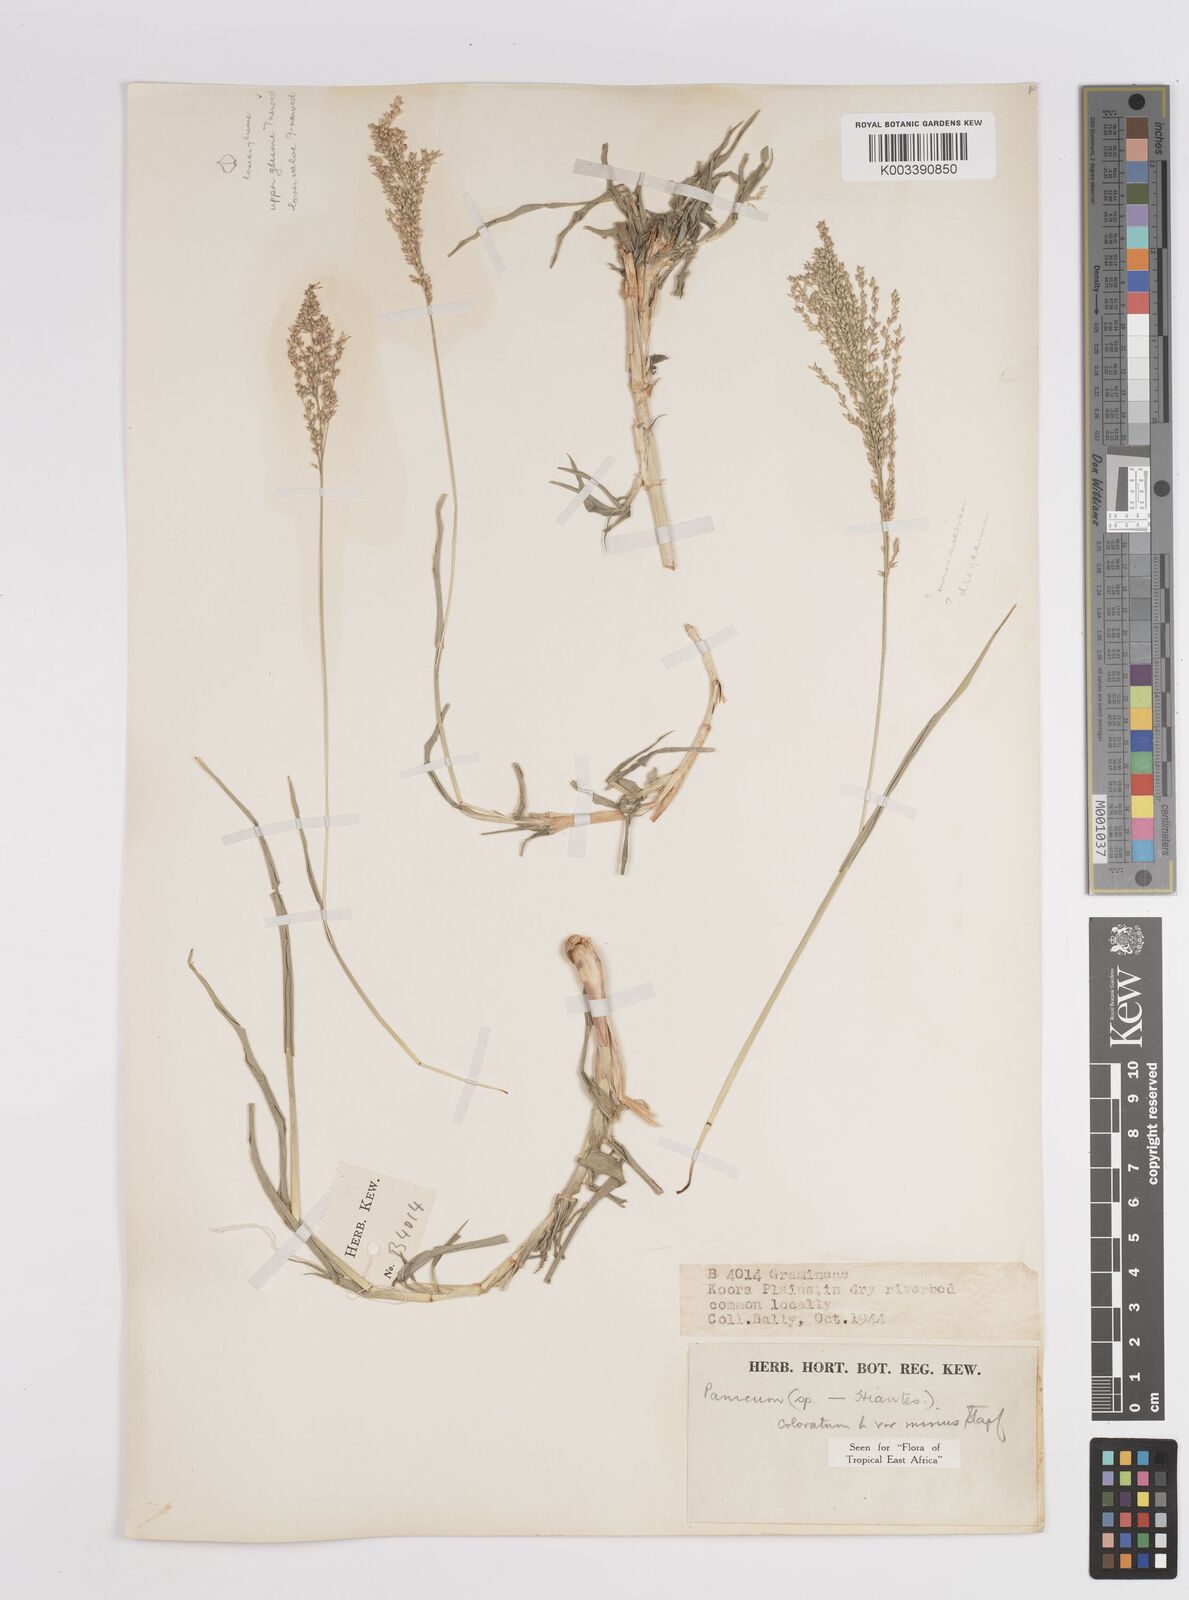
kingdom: Plantae
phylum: Tracheophyta
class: Liliopsida
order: Poales
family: Poaceae
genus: Panicum
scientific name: Panicum coloratum
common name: Kleingrass
